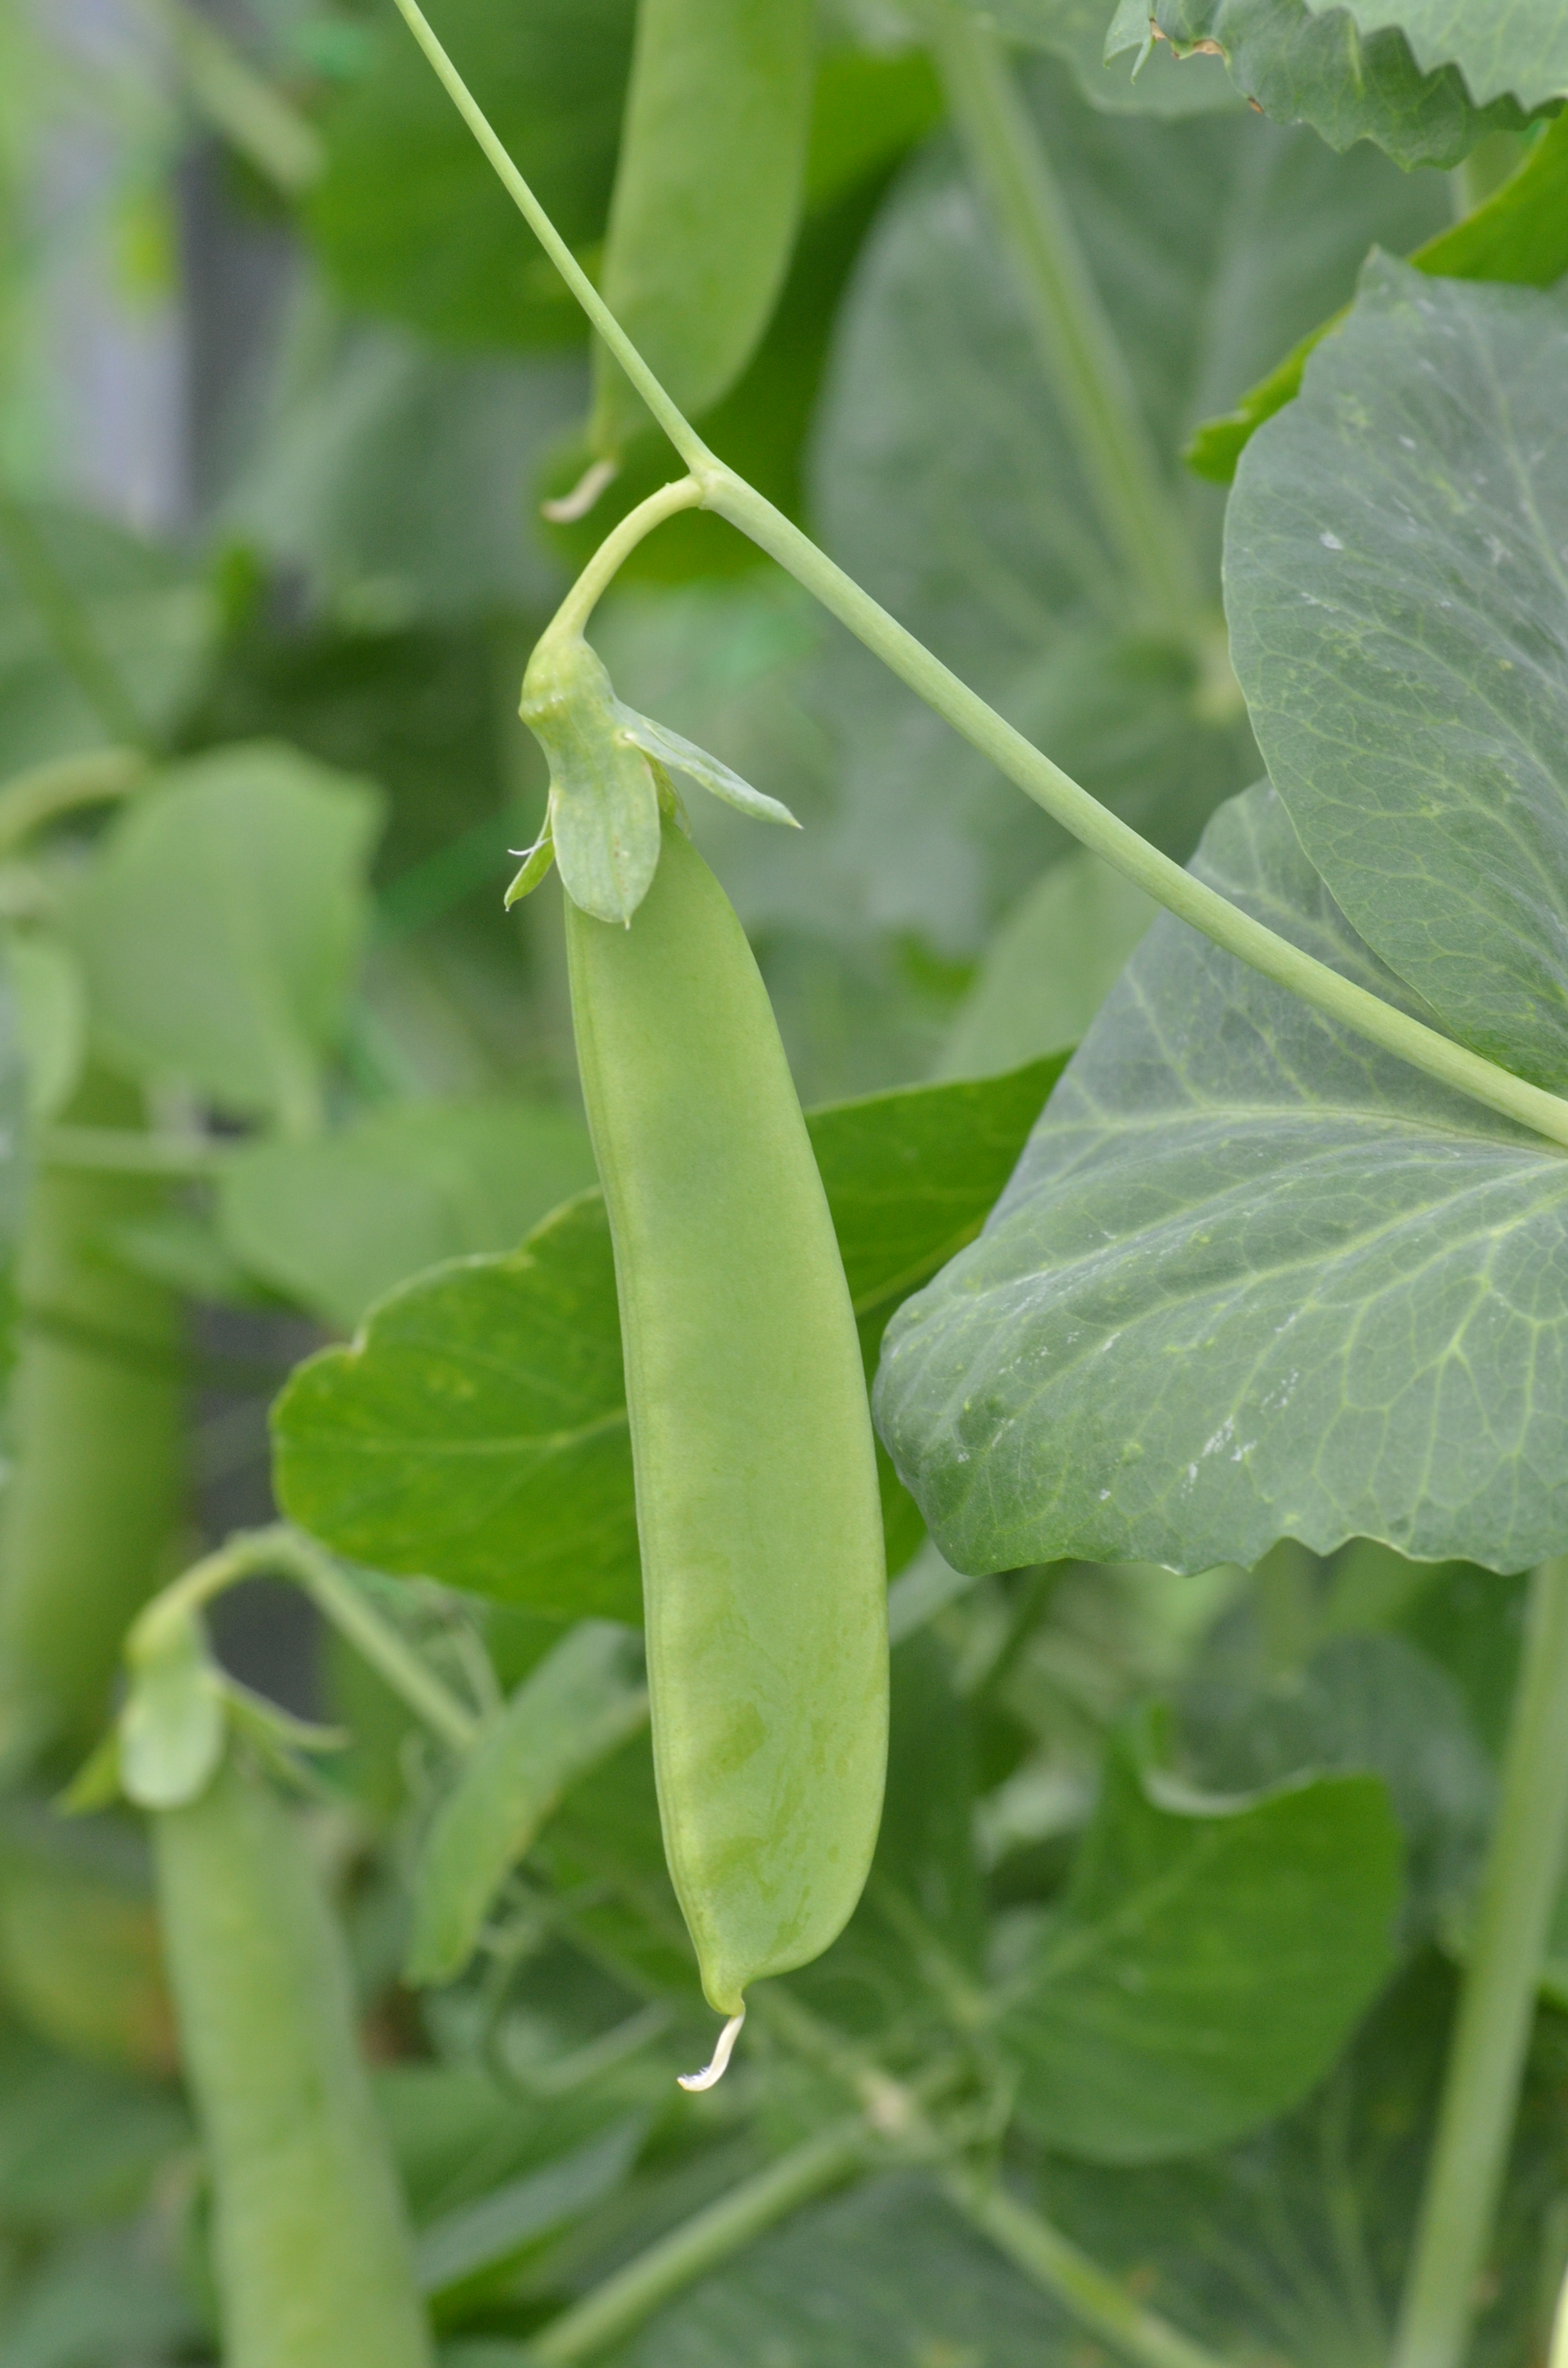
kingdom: Plantae
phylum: Tracheophyta
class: Magnoliopsida
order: Fabales
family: Fabaceae
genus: Lathyrus
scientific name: Lathyrus oleraceus
